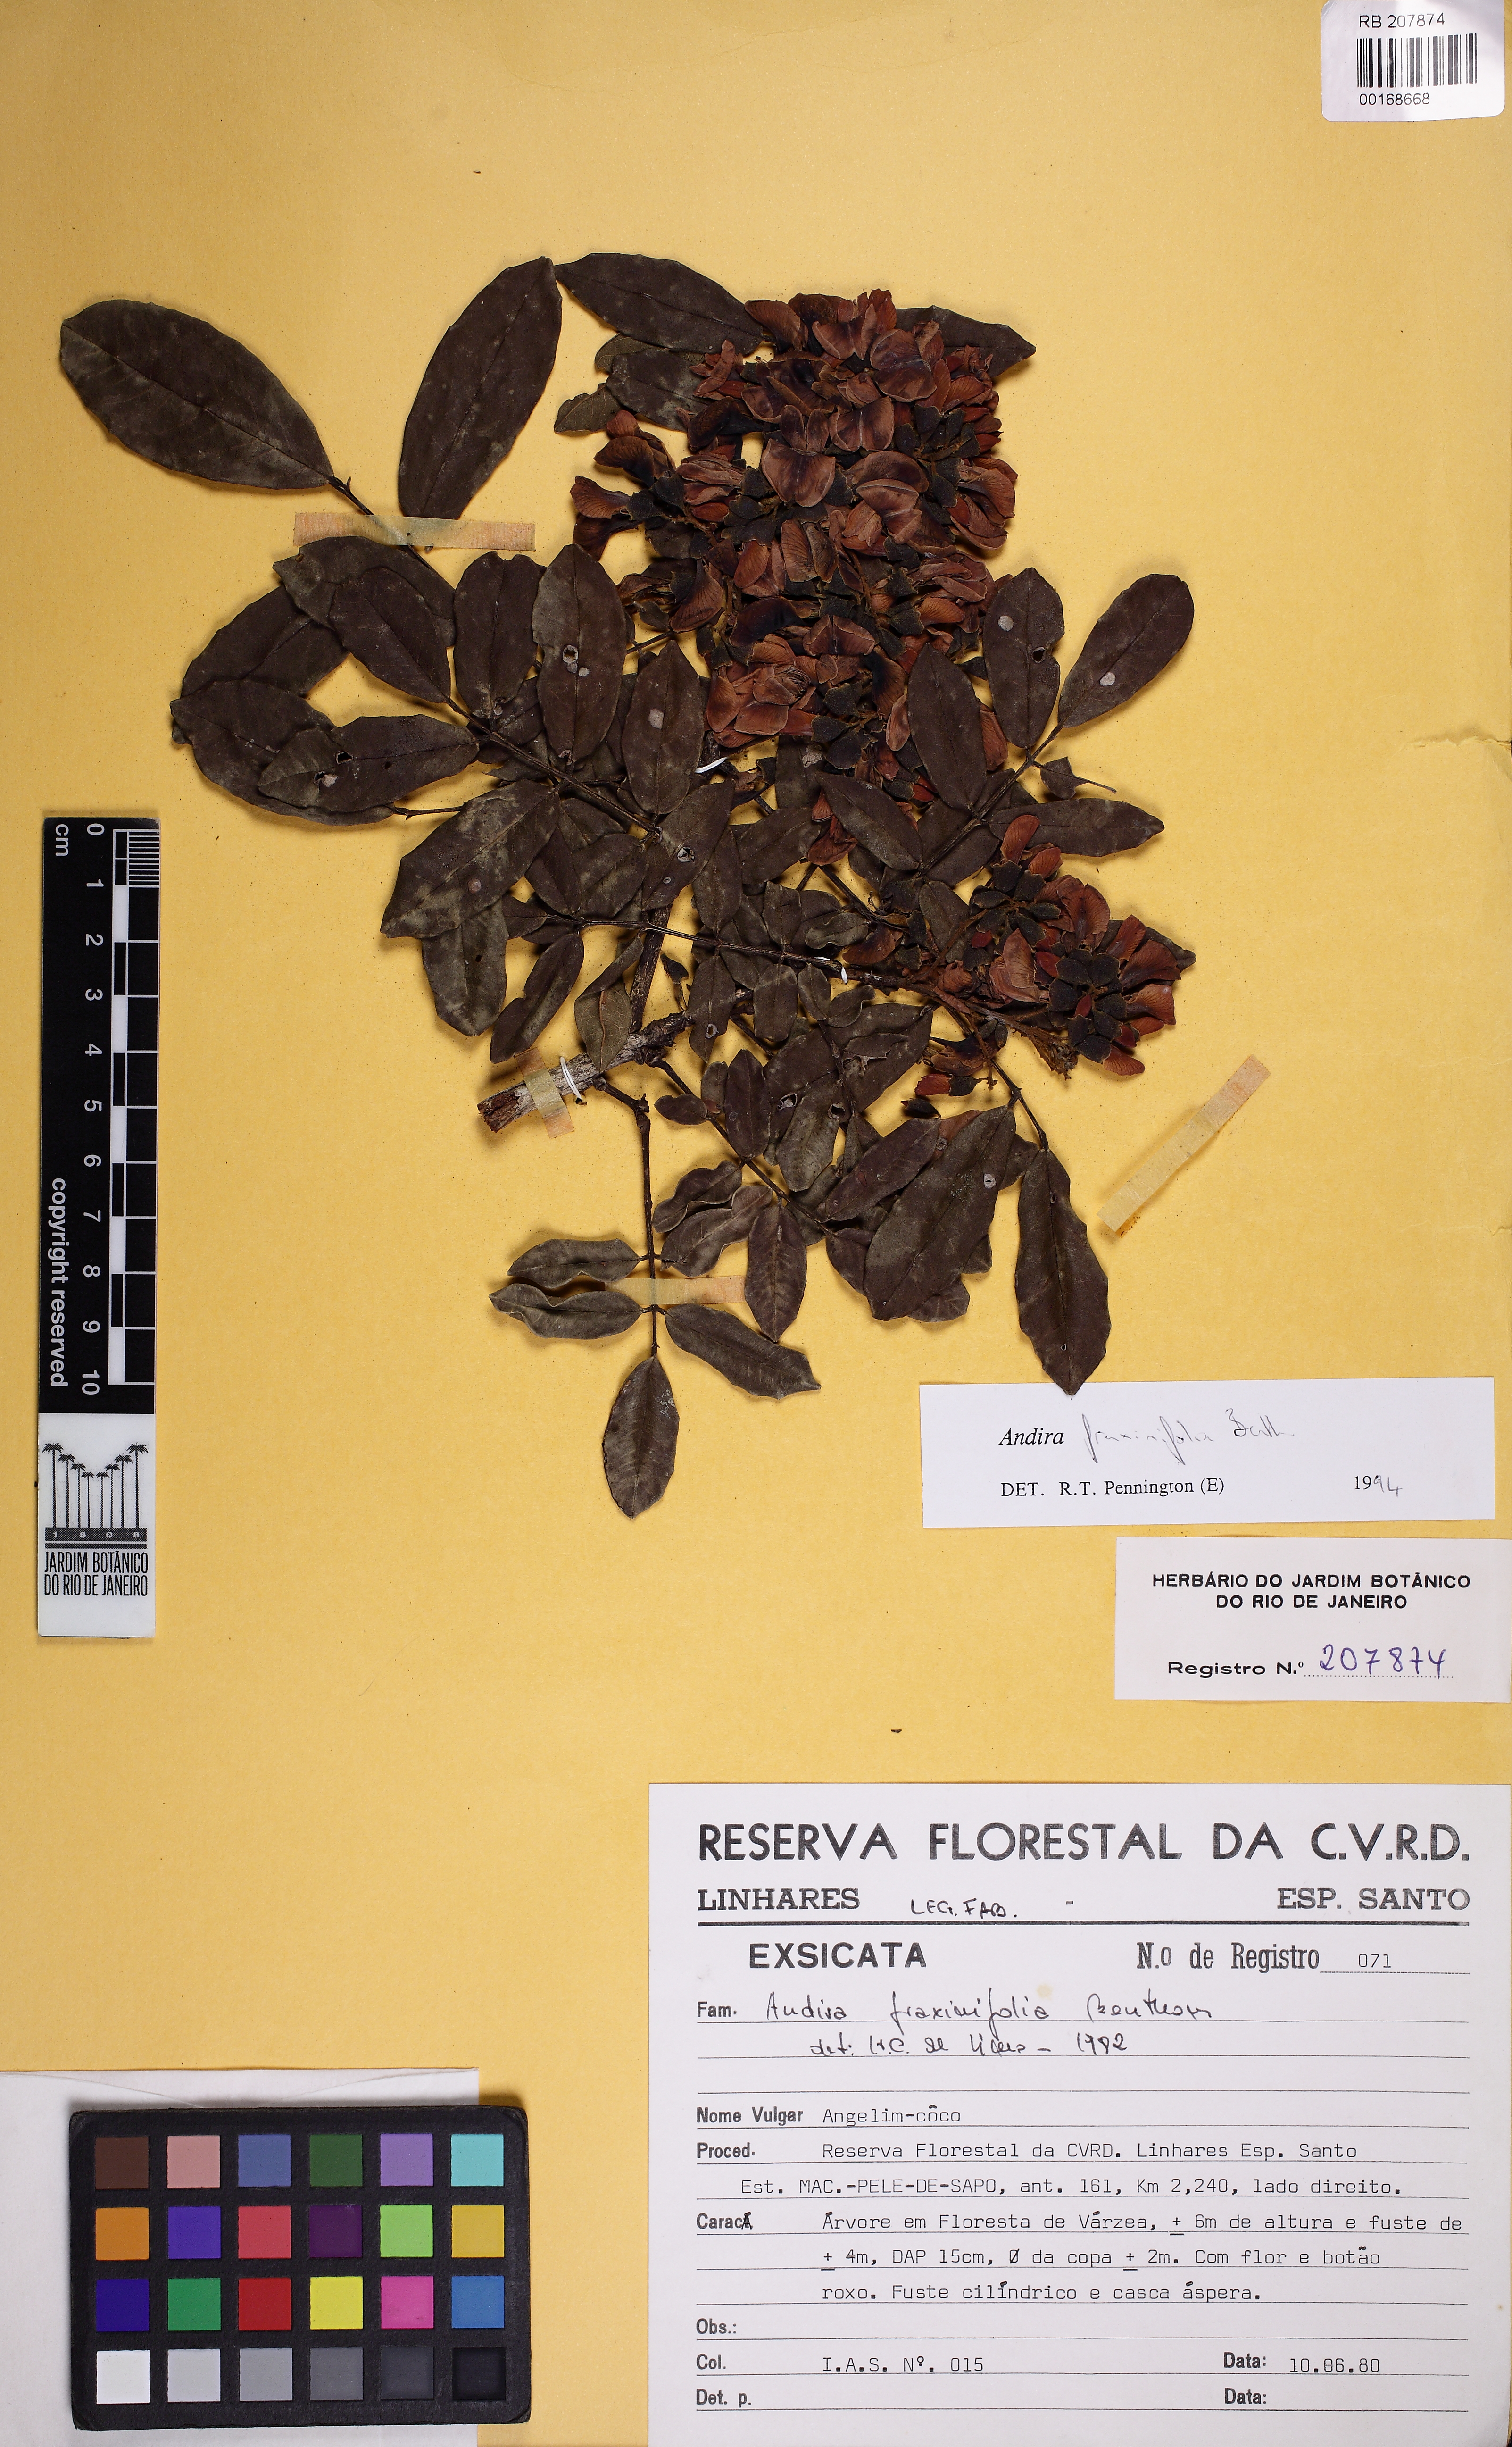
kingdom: Plantae
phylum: Tracheophyta
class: Magnoliopsida
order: Fabales
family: Fabaceae
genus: Andira
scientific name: Andira fraxinifolia
